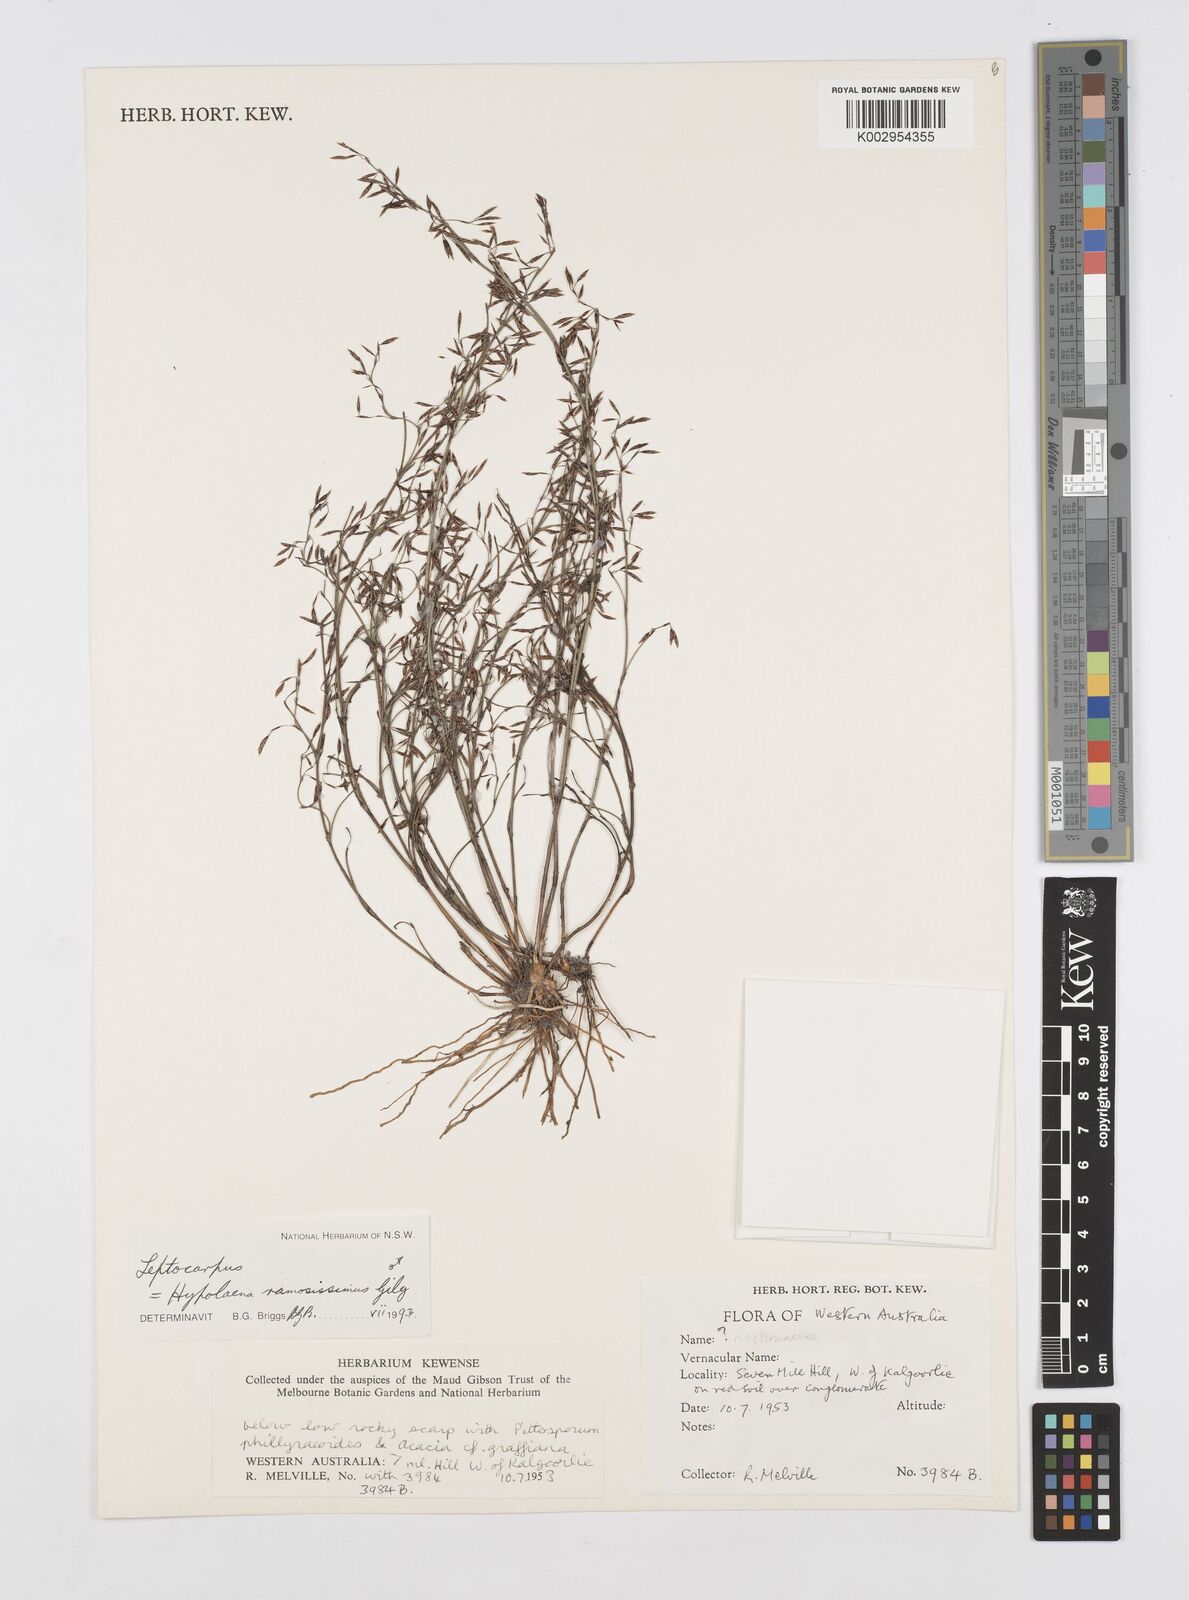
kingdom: Plantae
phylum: Tracheophyta
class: Liliopsida
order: Poales
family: Restionaceae
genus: Leptocarpus
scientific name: Leptocarpus
